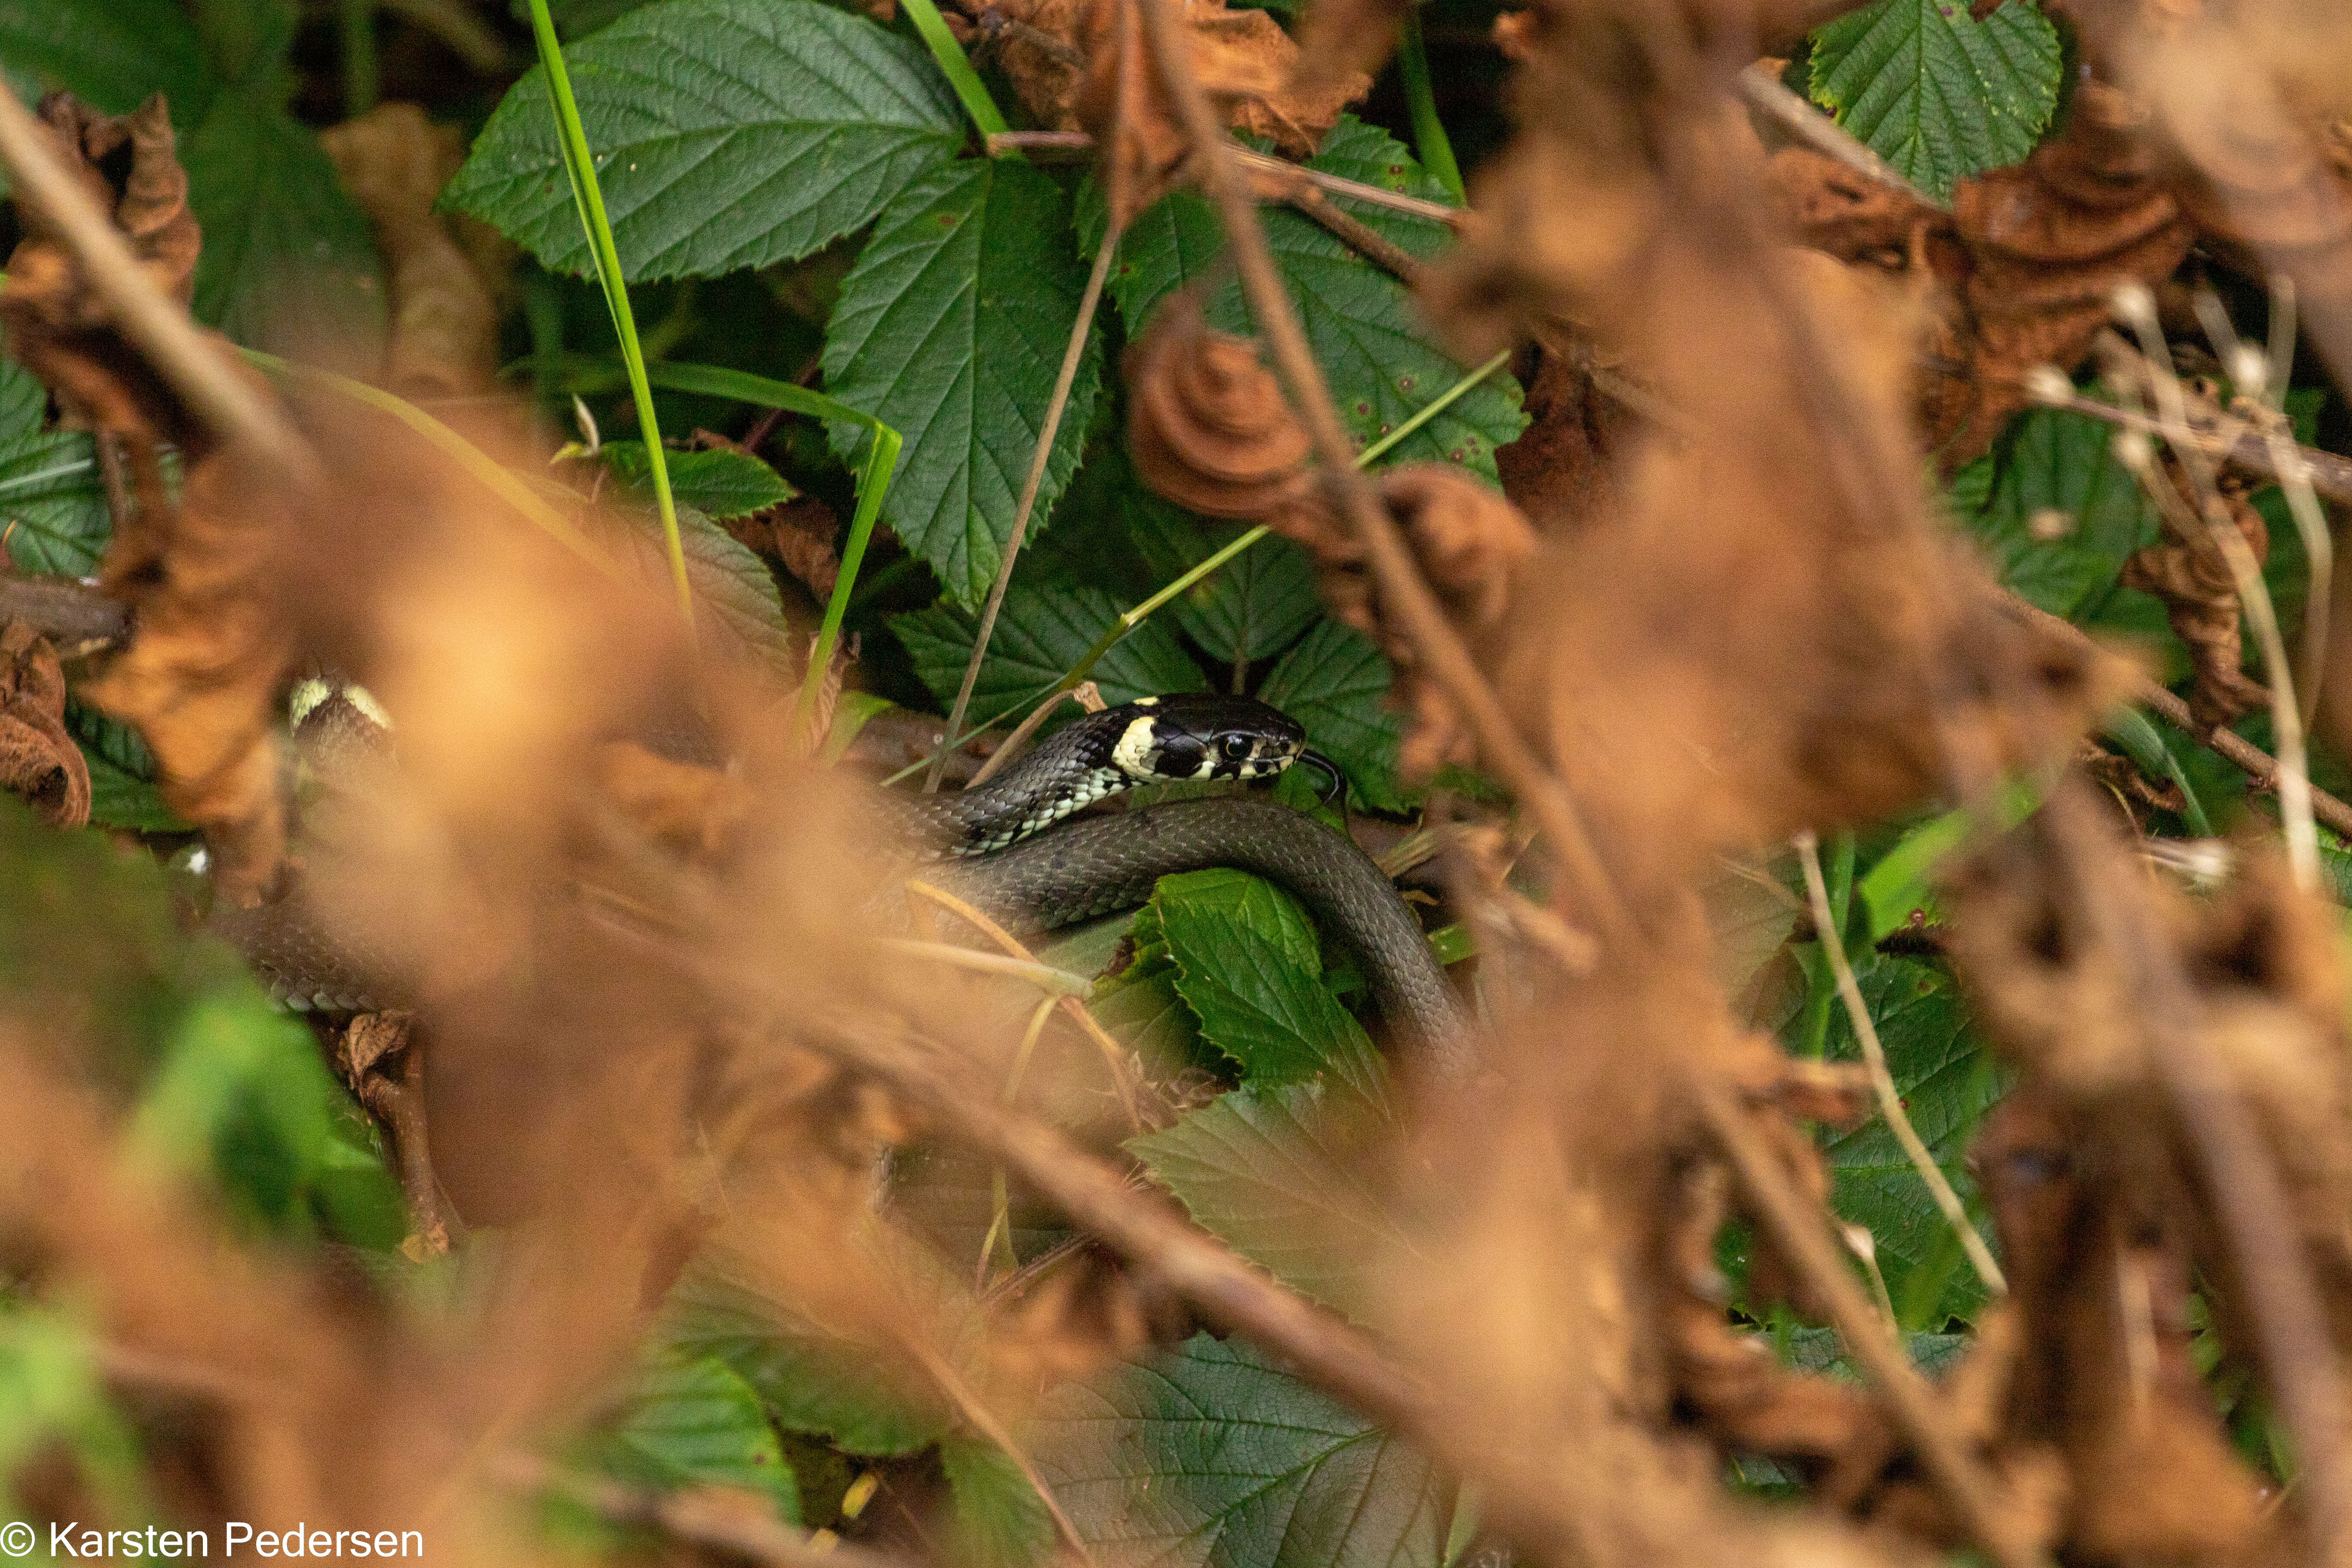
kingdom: Animalia
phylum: Chordata
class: Squamata
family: Colubridae
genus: Natrix
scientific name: Natrix natrix
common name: Snog
